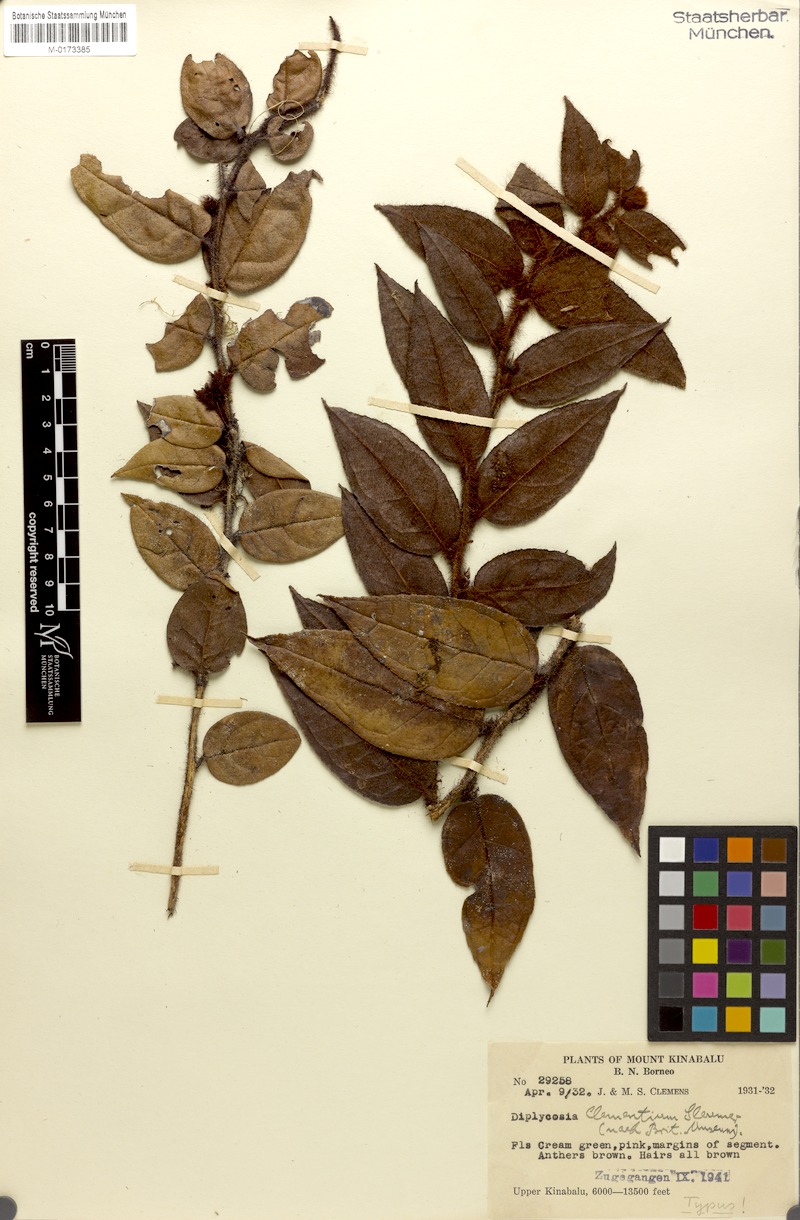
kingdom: Plantae
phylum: Tracheophyta
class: Magnoliopsida
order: Ericales
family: Ericaceae
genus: Gaultheria
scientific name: Gaultheria clementium
